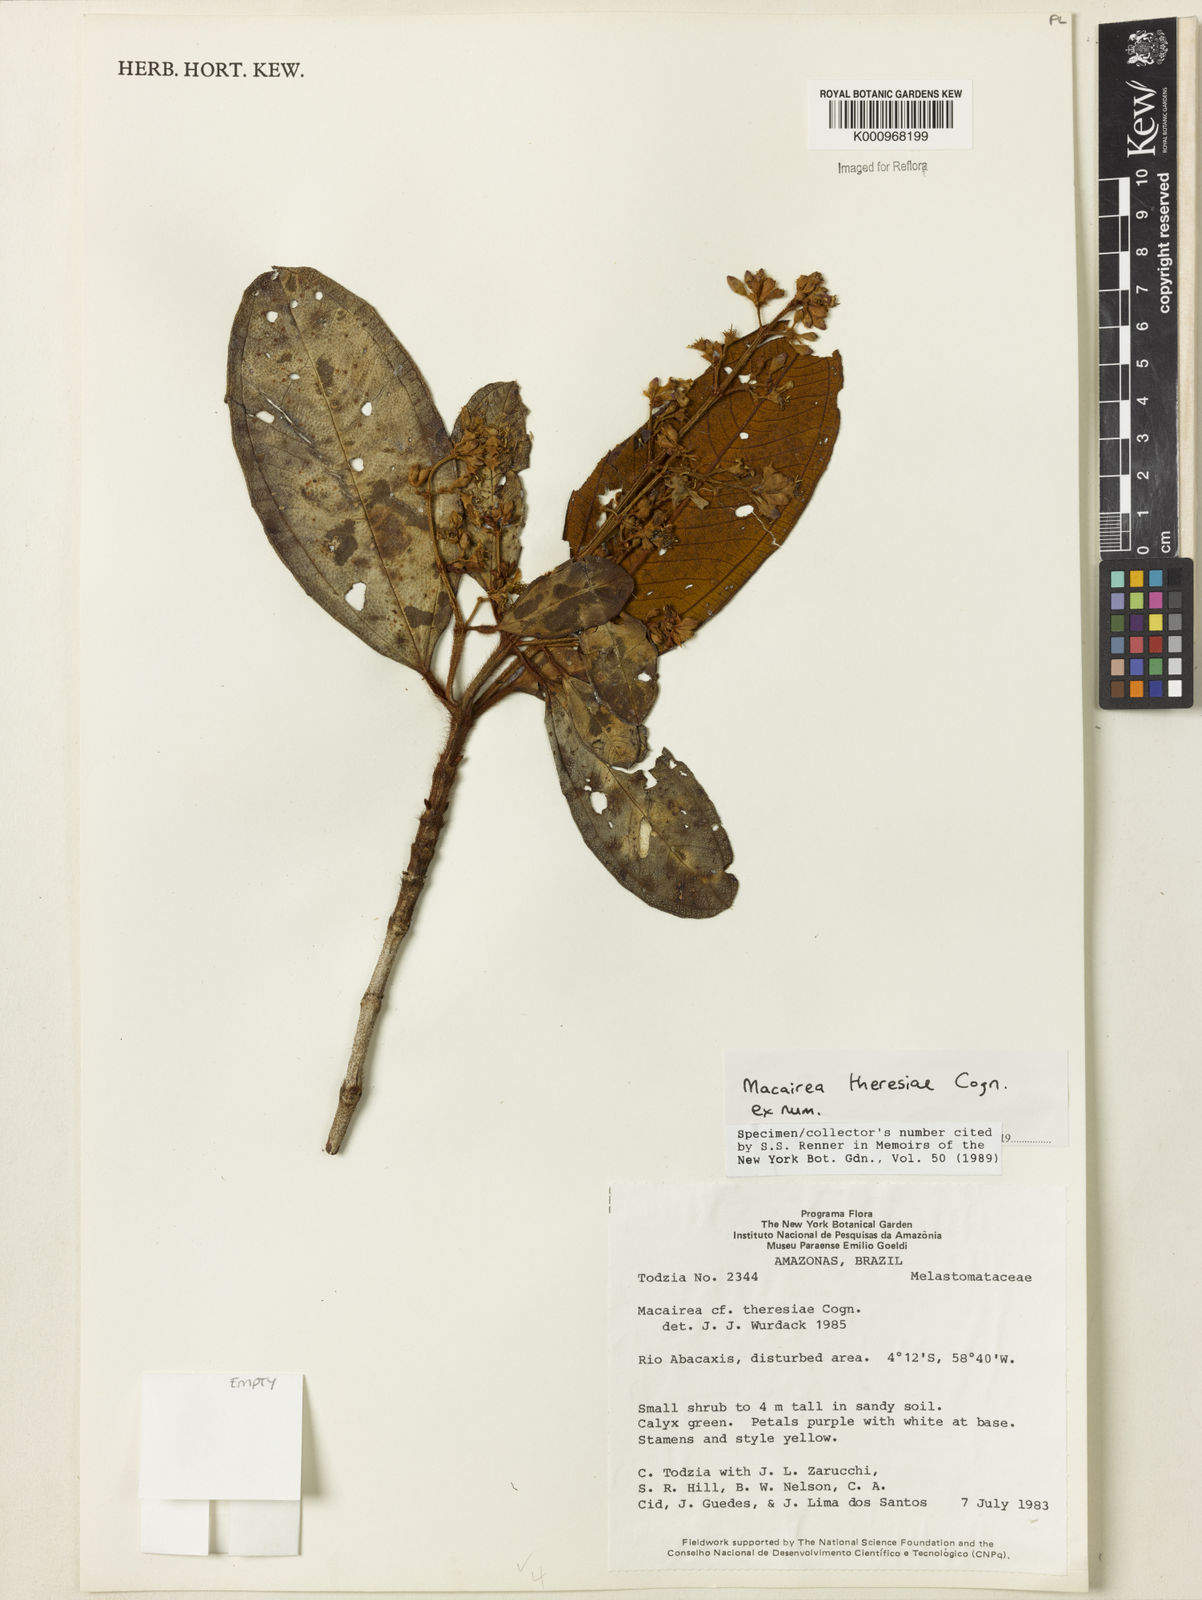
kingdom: Plantae
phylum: Tracheophyta
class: Magnoliopsida
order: Myrtales
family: Melastomataceae
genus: Macairea
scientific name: Macairea theresiae
